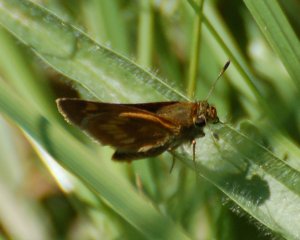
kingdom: Animalia
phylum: Arthropoda
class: Insecta
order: Lepidoptera
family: Hesperiidae
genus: Polites
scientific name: Polites
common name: Long Dash Skipper
